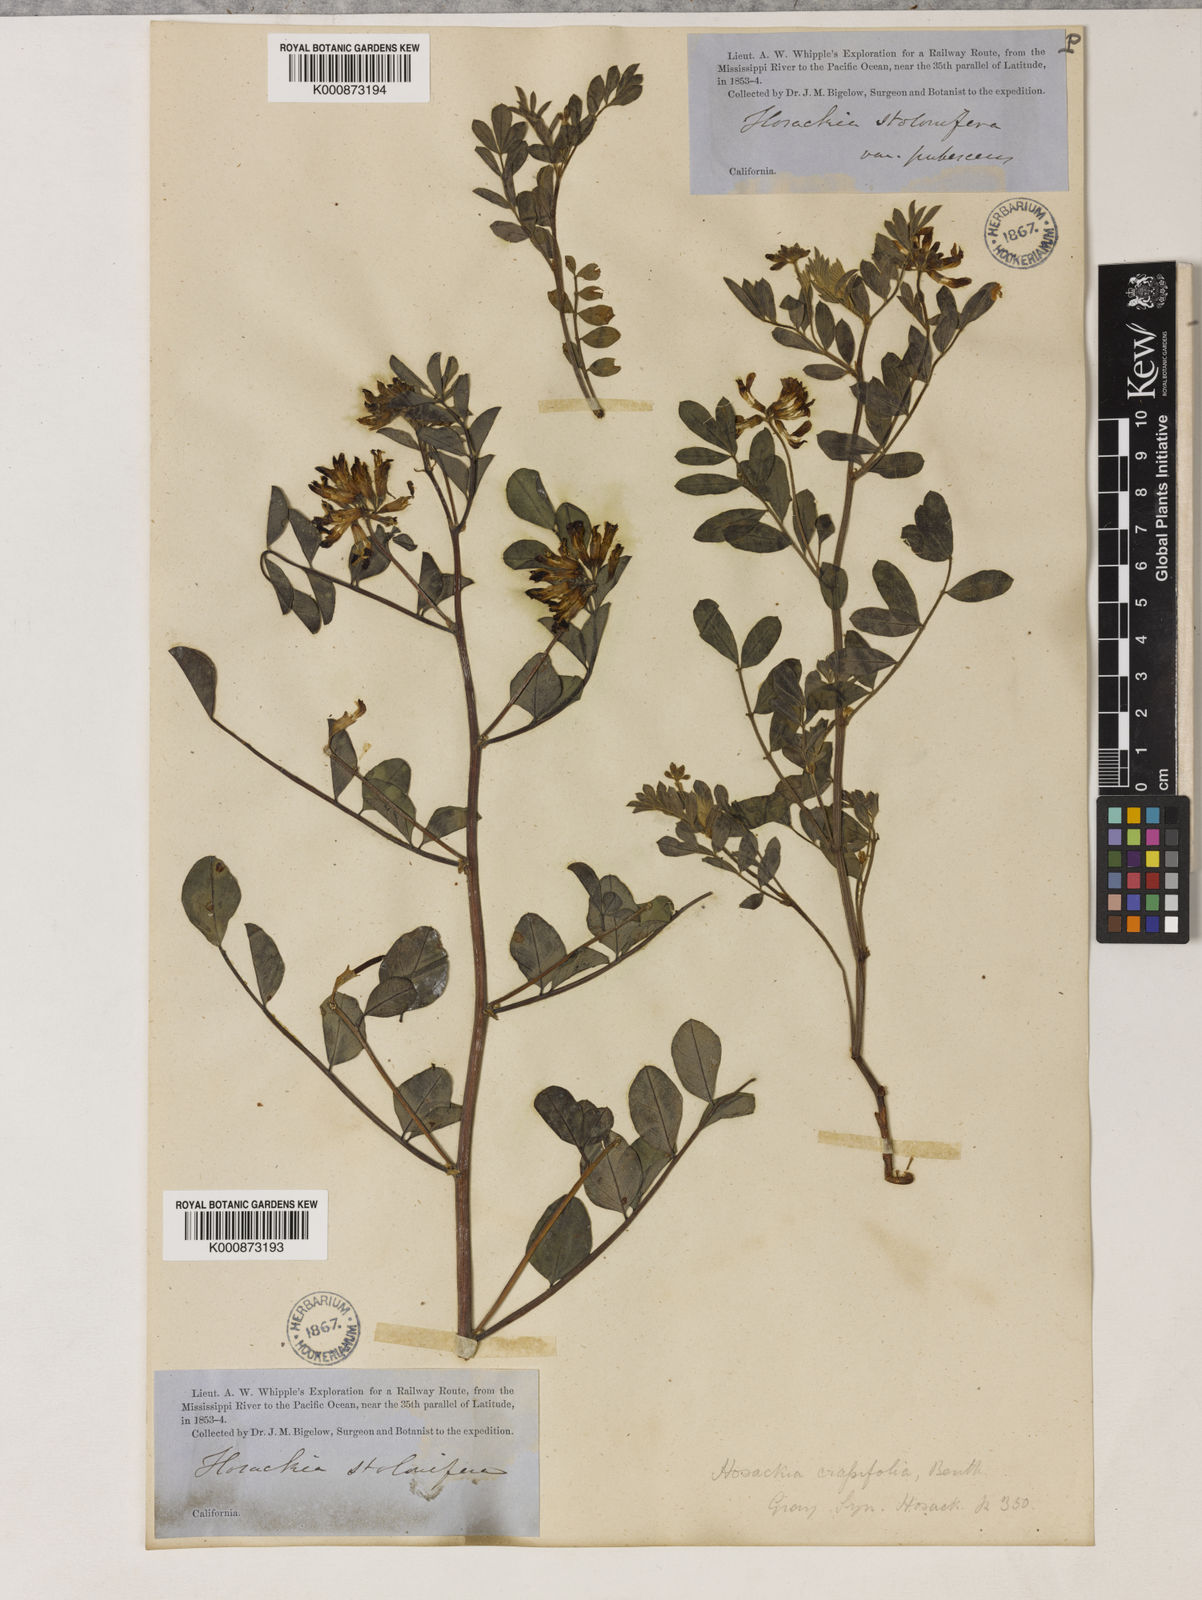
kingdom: Plantae
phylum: Tracheophyta
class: Magnoliopsida
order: Fabales
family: Fabaceae
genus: Hosackia
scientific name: Hosackia crassifolia
